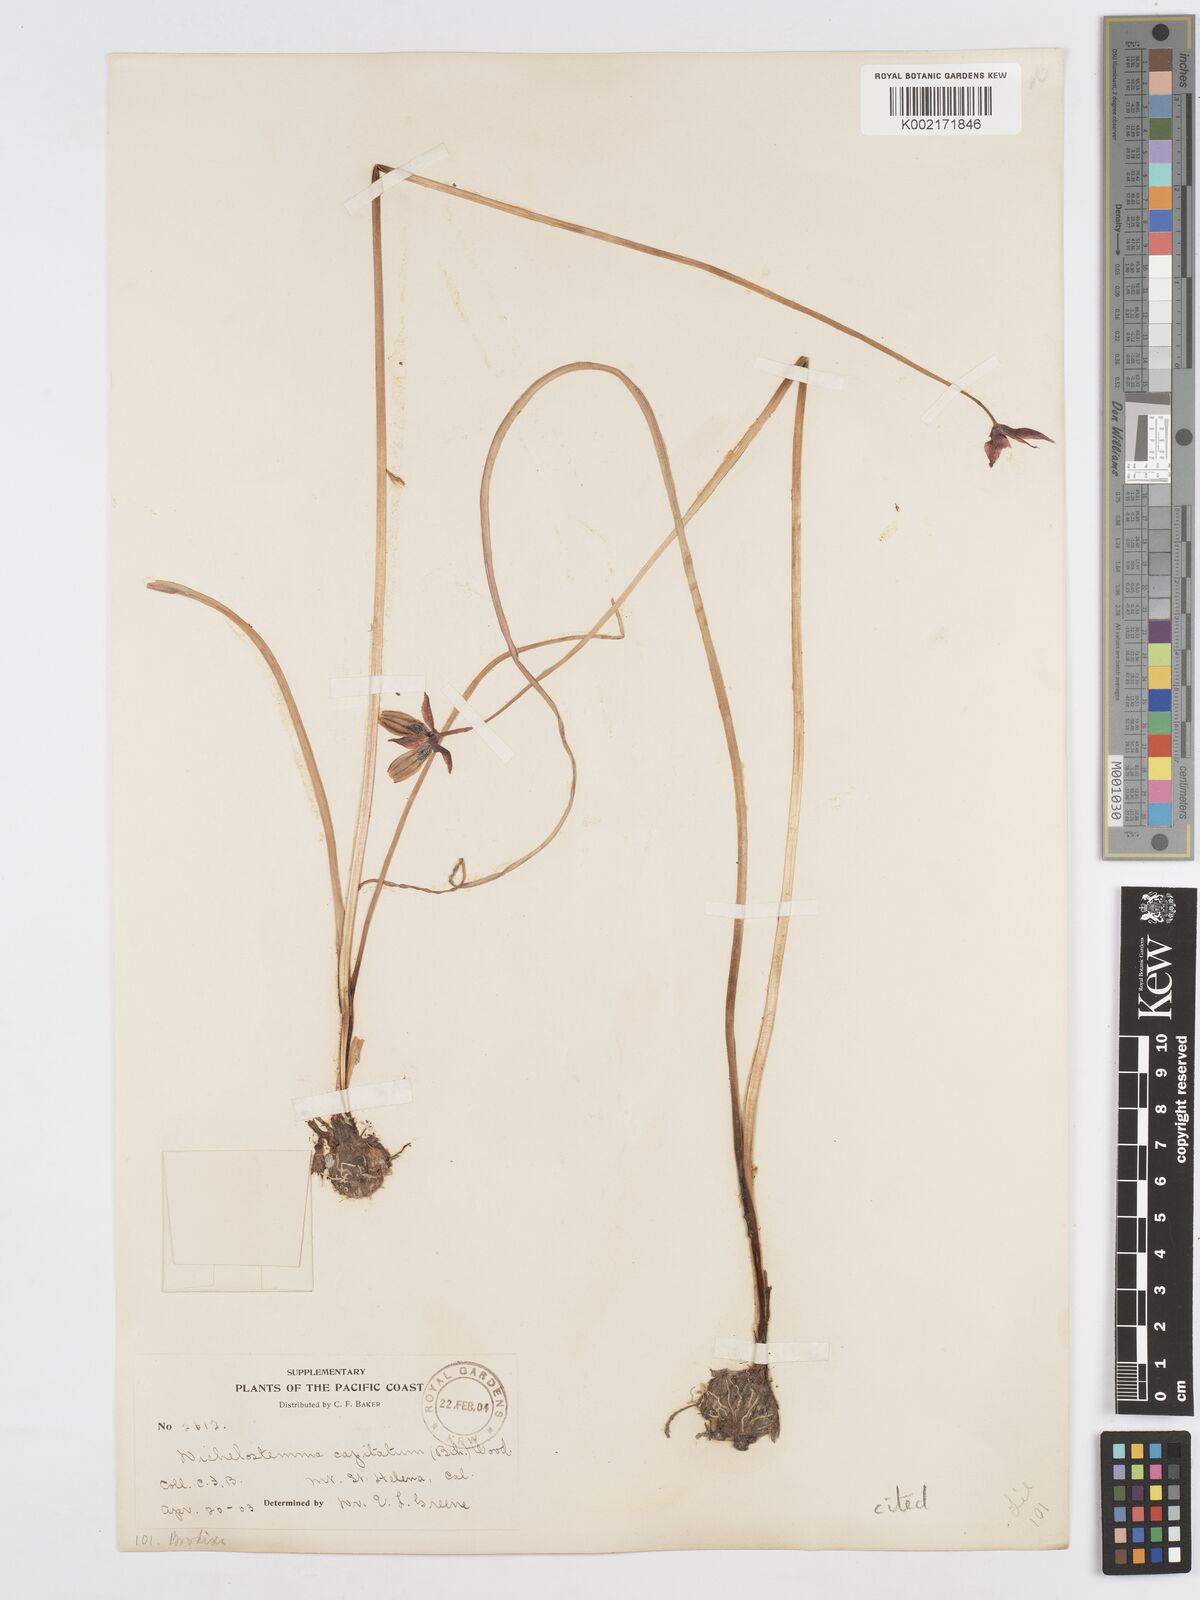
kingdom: Plantae
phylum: Tracheophyta
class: Liliopsida
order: Asparagales
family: Asparagaceae
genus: Dichelostemma
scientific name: Dichelostemma congestum
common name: Fork-tooth ookow
